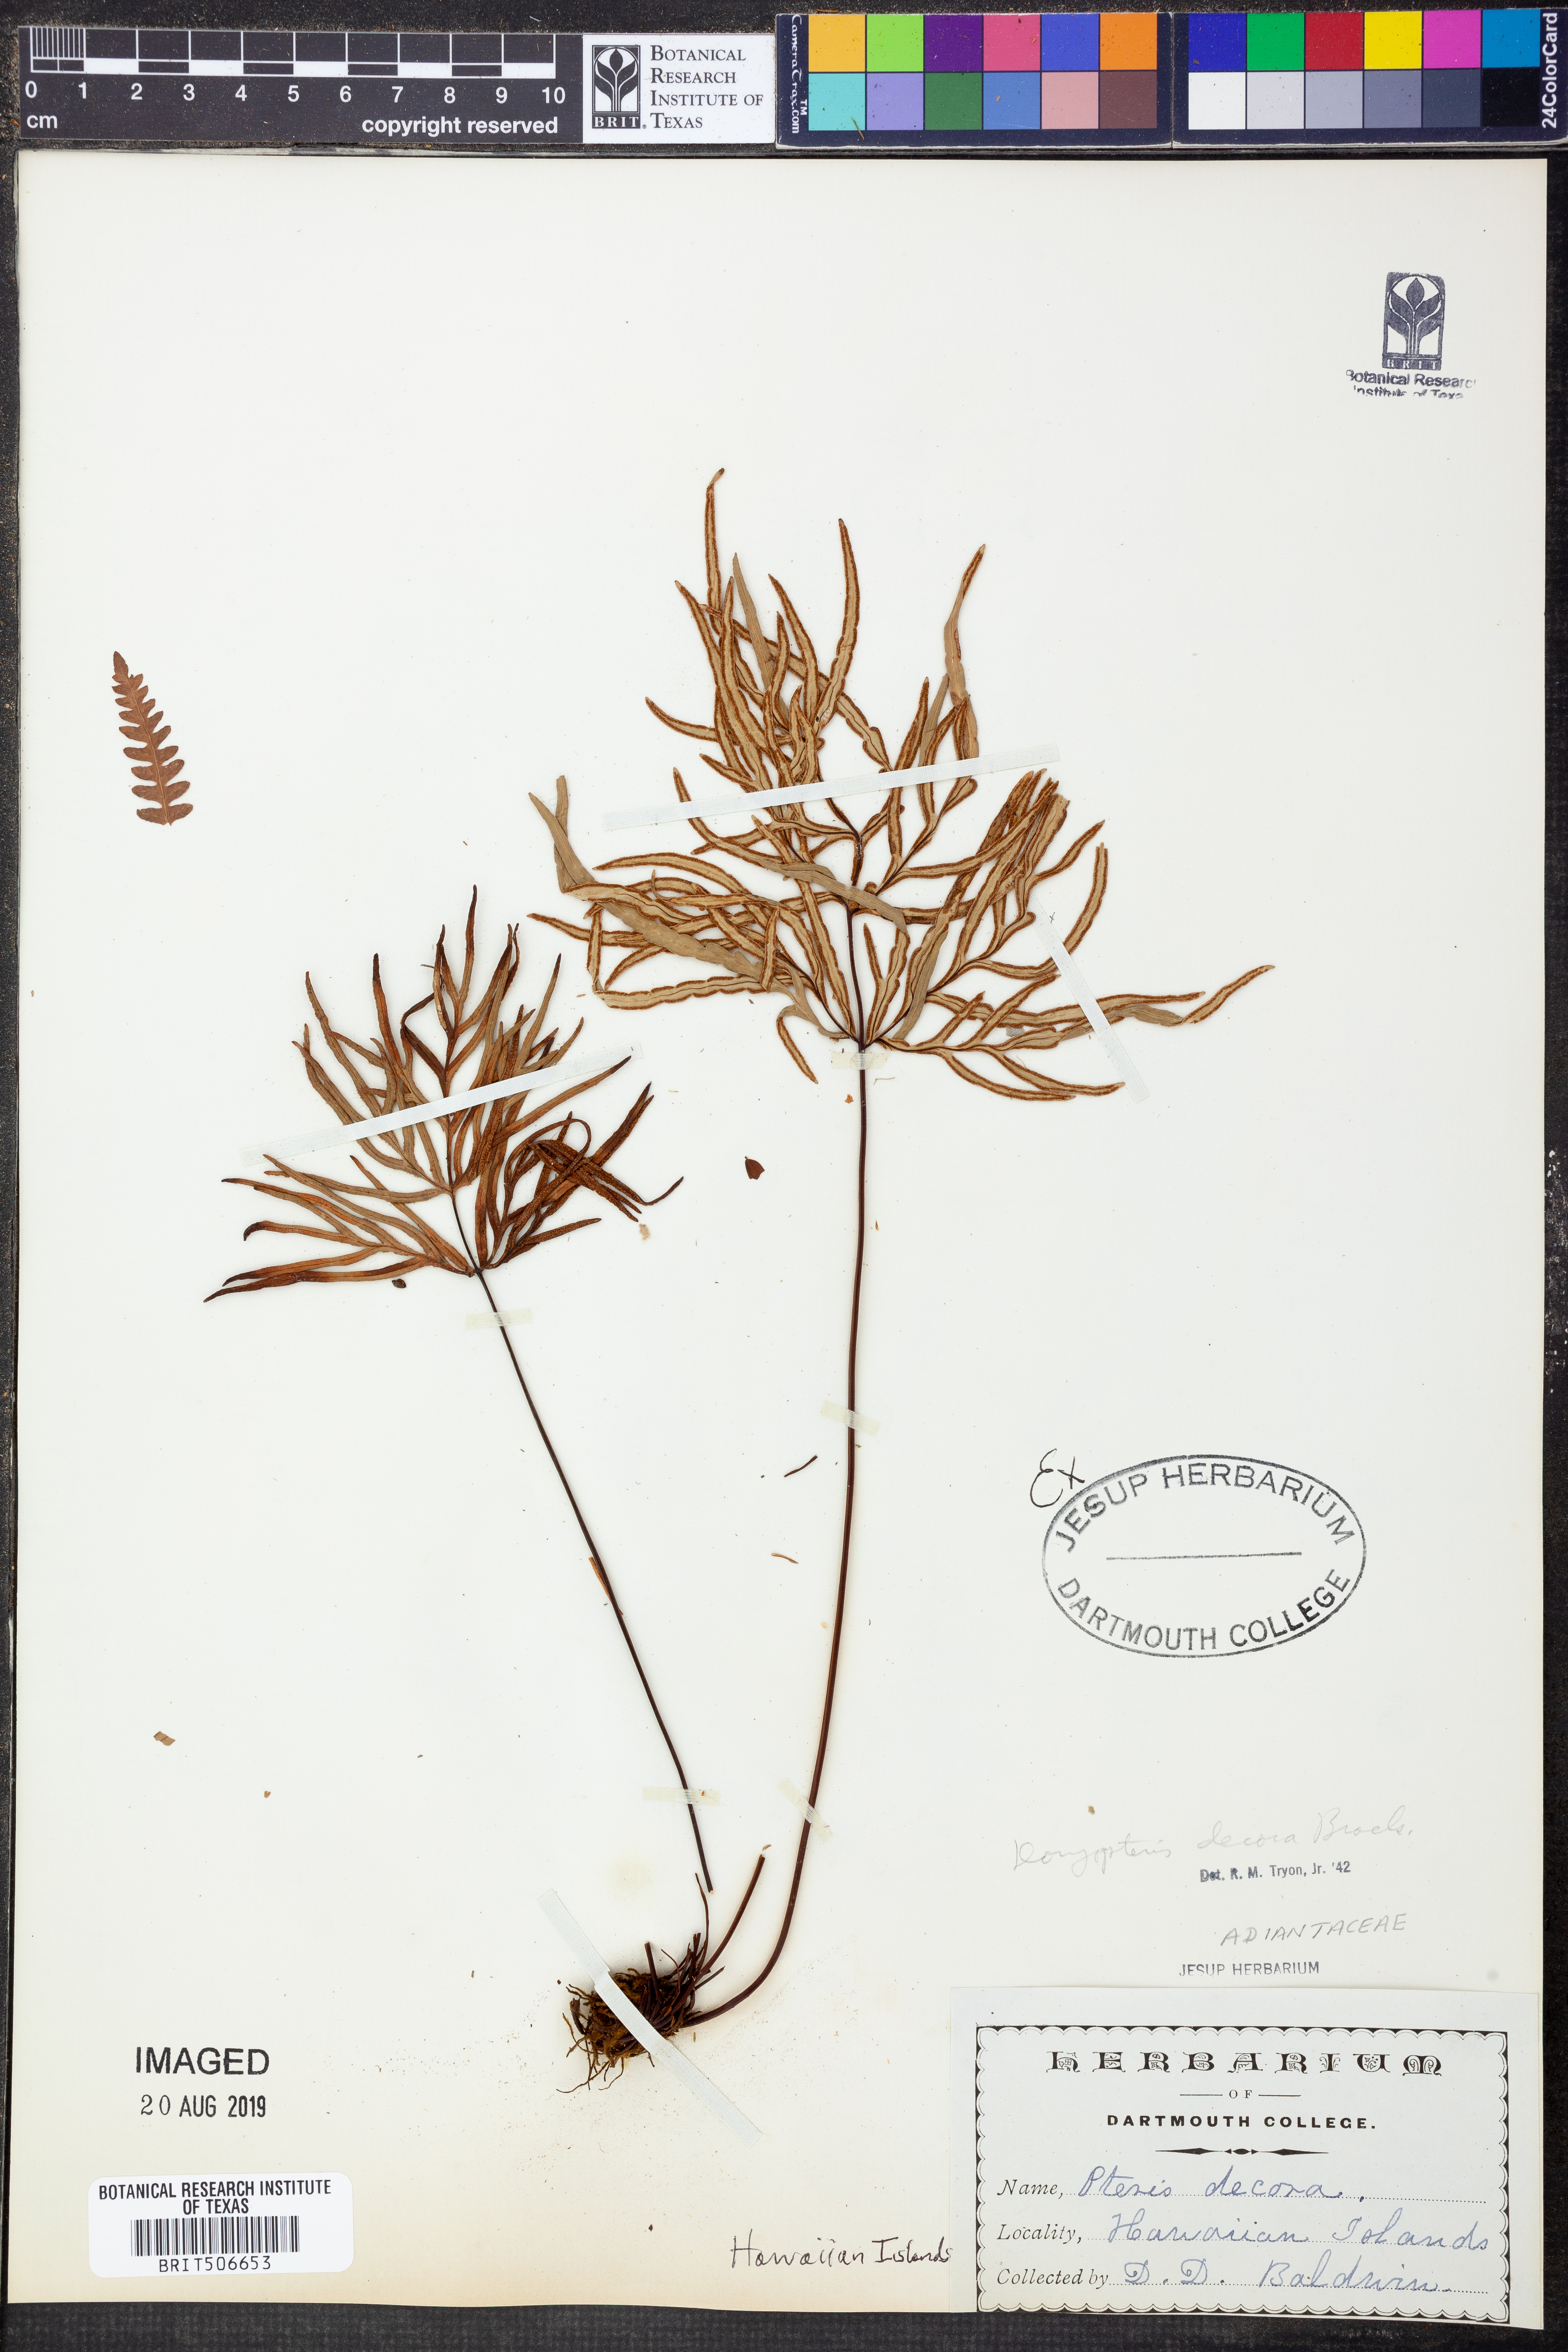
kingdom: Plantae
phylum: Tracheophyta
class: Polypodiopsida
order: Polypodiales
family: Pteridaceae
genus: Doryopteris
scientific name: Doryopteris decora
